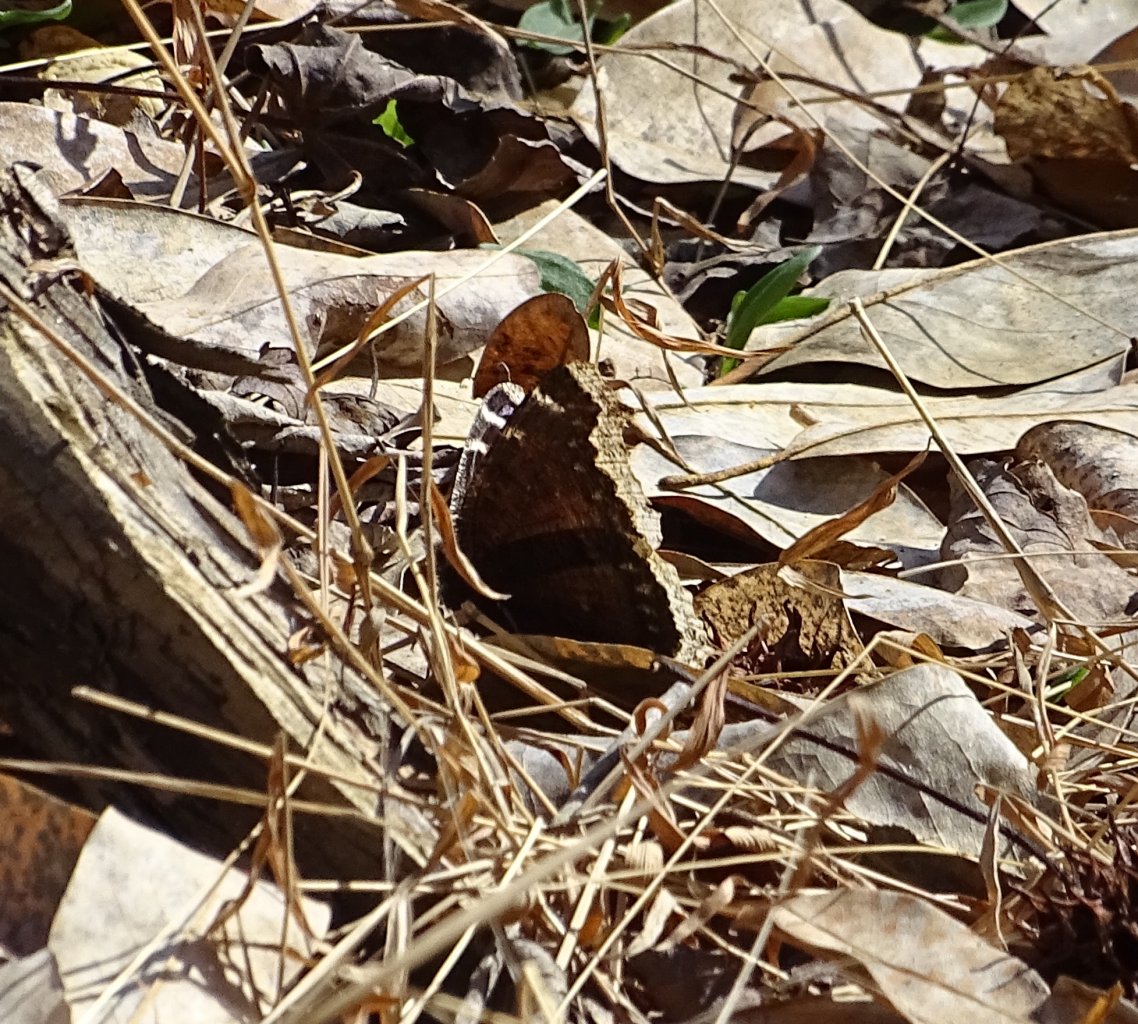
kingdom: Animalia
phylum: Arthropoda
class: Insecta
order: Lepidoptera
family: Nymphalidae
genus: Nymphalis
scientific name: Nymphalis antiopa
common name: Mourning Cloak
